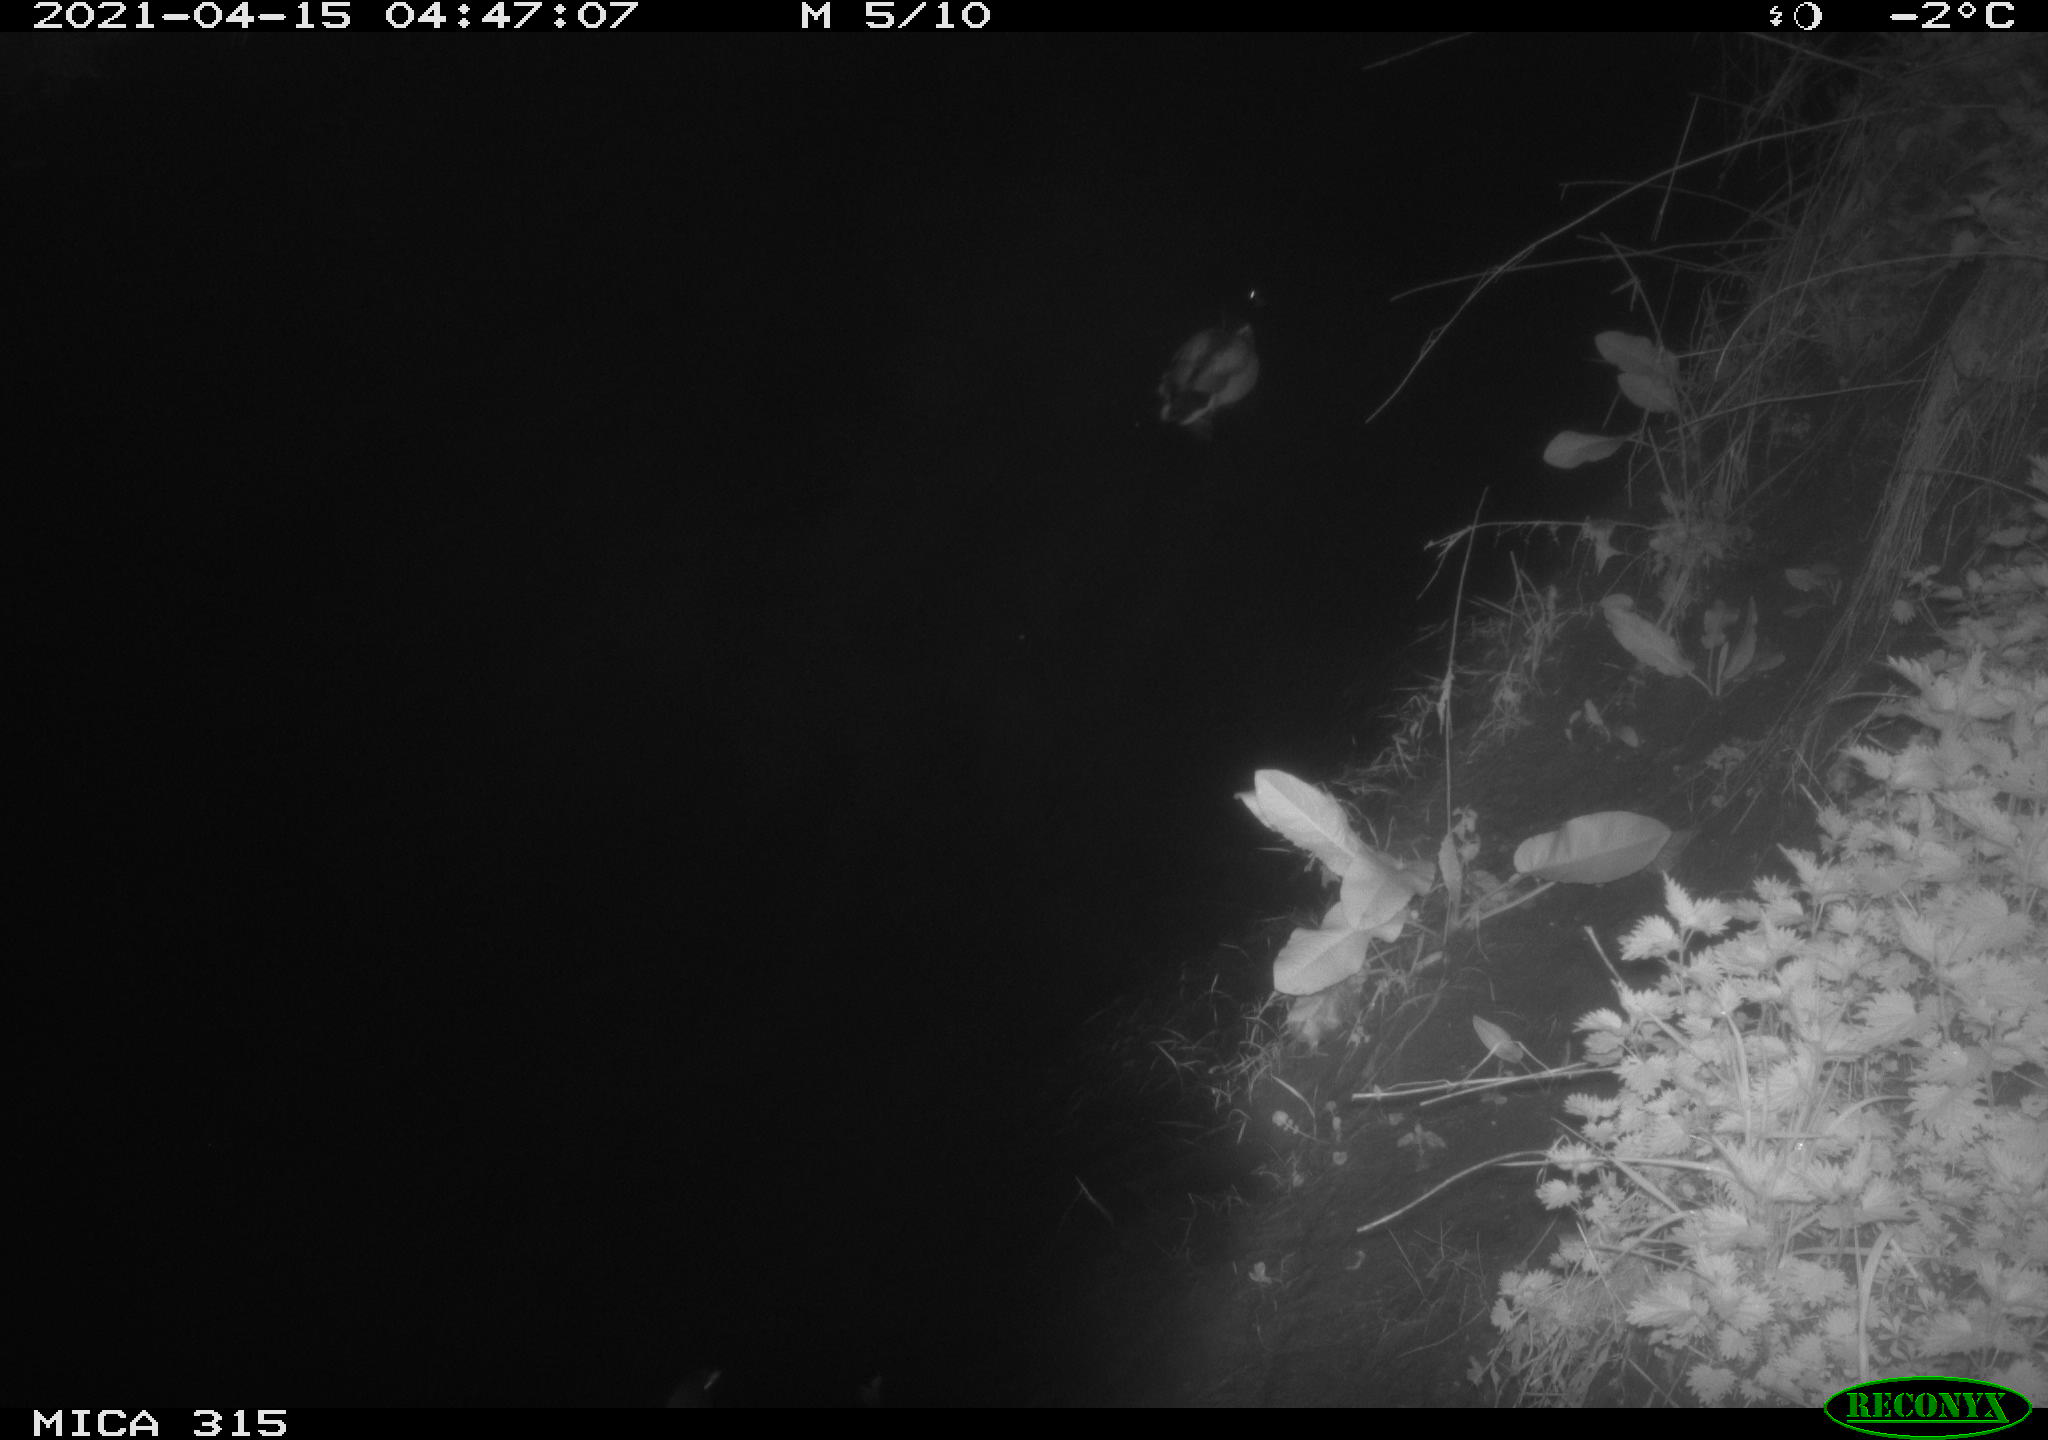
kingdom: Animalia
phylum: Chordata
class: Aves
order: Anseriformes
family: Anatidae
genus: Anas
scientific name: Anas platyrhynchos
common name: Mallard
